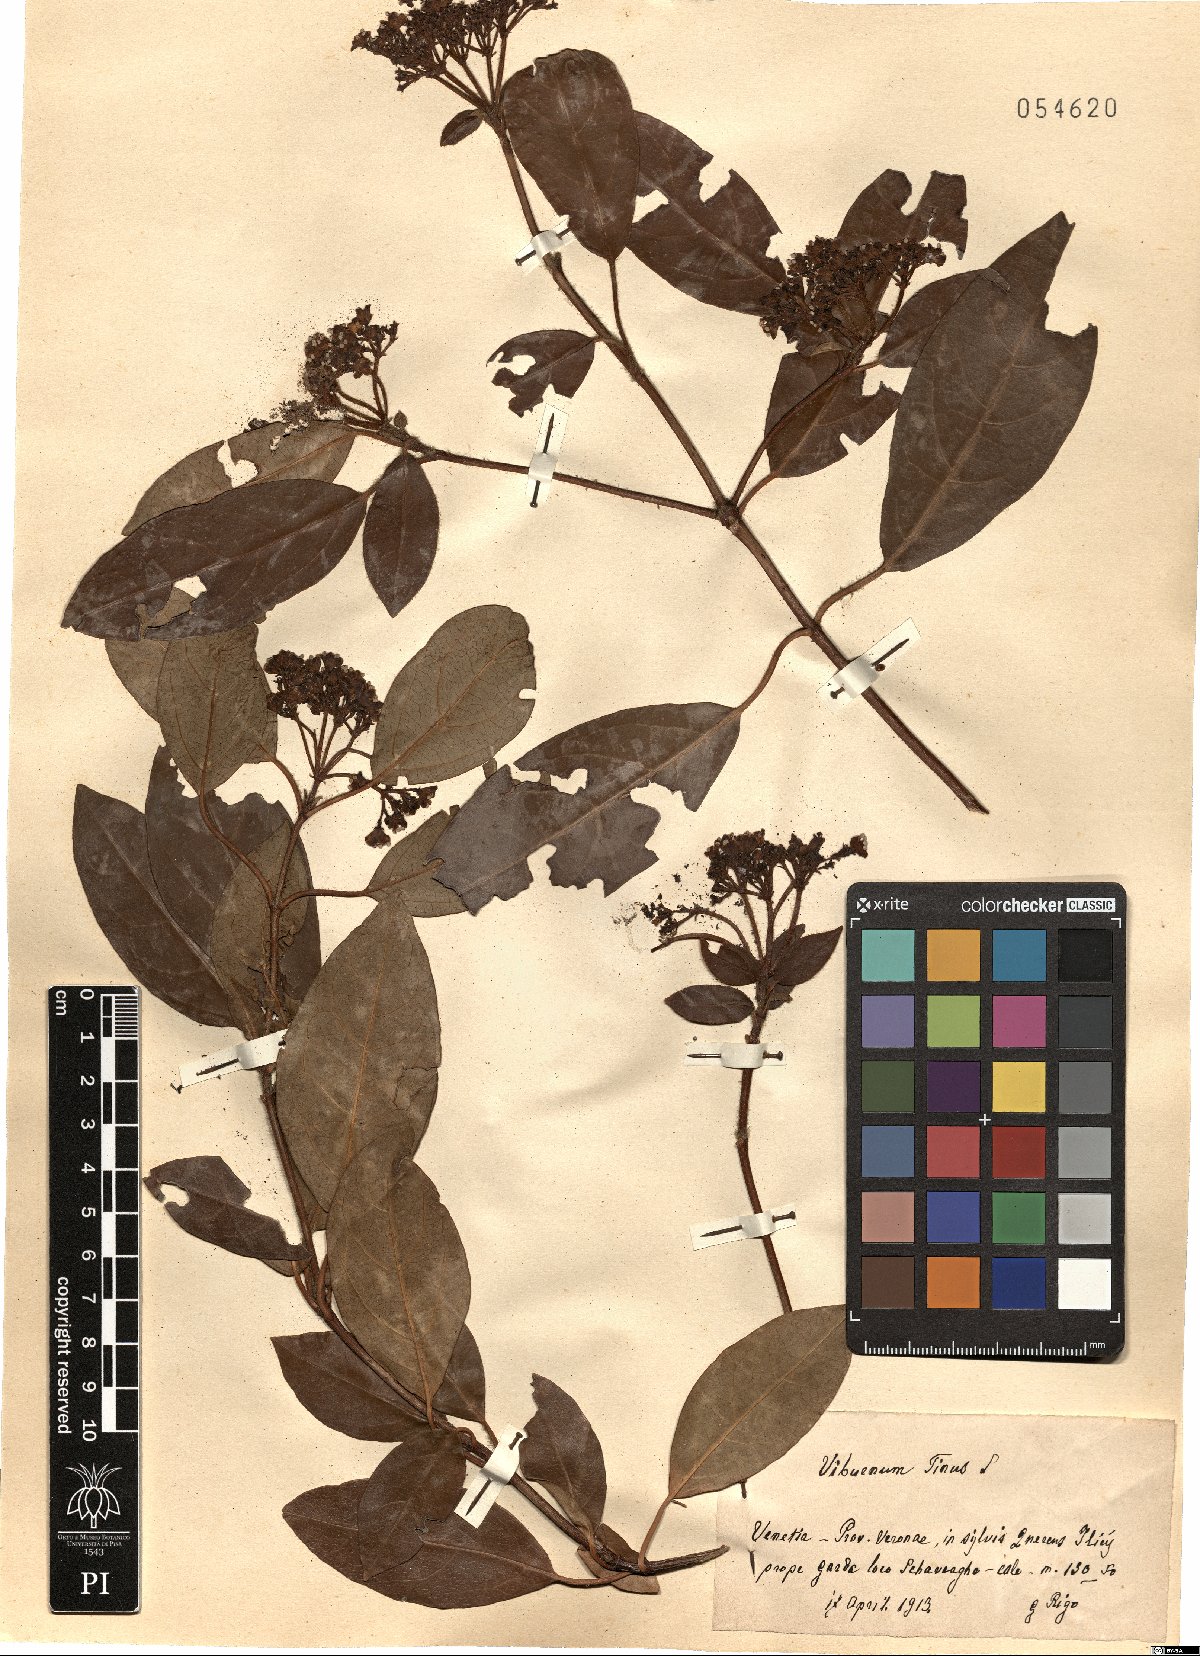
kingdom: Plantae
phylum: Tracheophyta
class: Magnoliopsida
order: Dipsacales
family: Viburnaceae
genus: Viburnum
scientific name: Viburnum tinus
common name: Laurustinus
